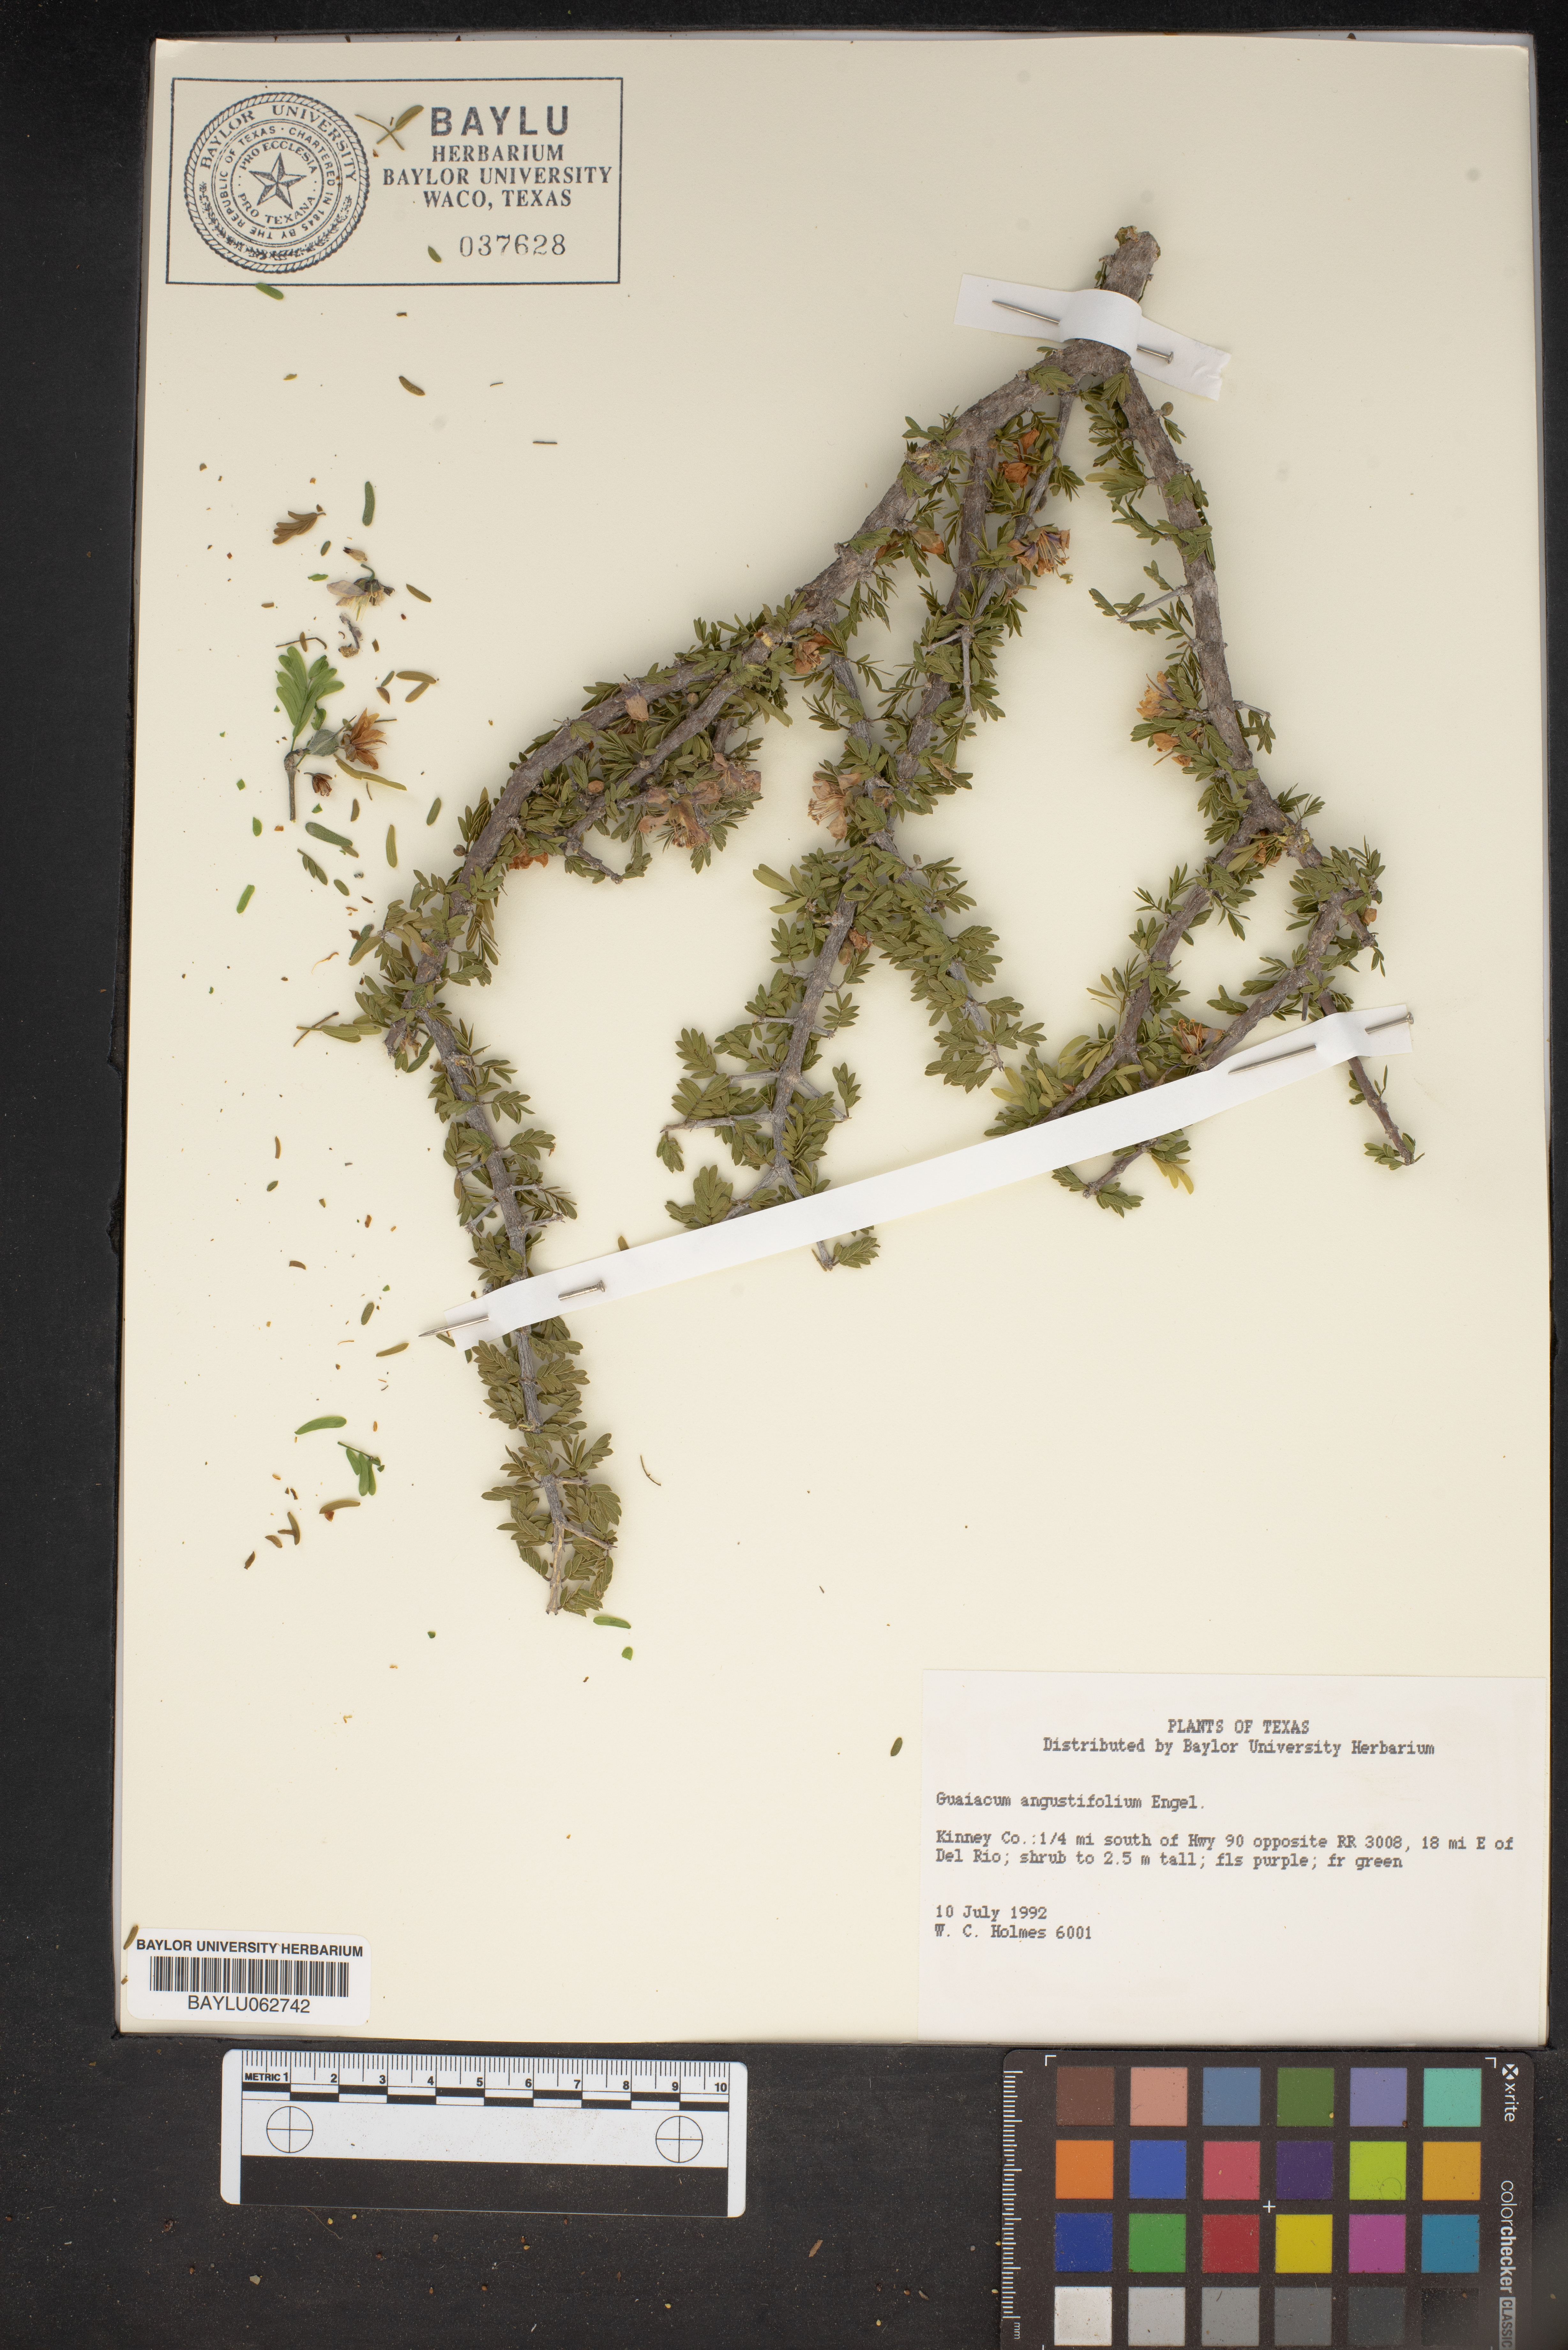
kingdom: Plantae
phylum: Tracheophyta
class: Magnoliopsida
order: Zygophyllales
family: Zygophyllaceae
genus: Porlieria
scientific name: Porlieria angustifolia
